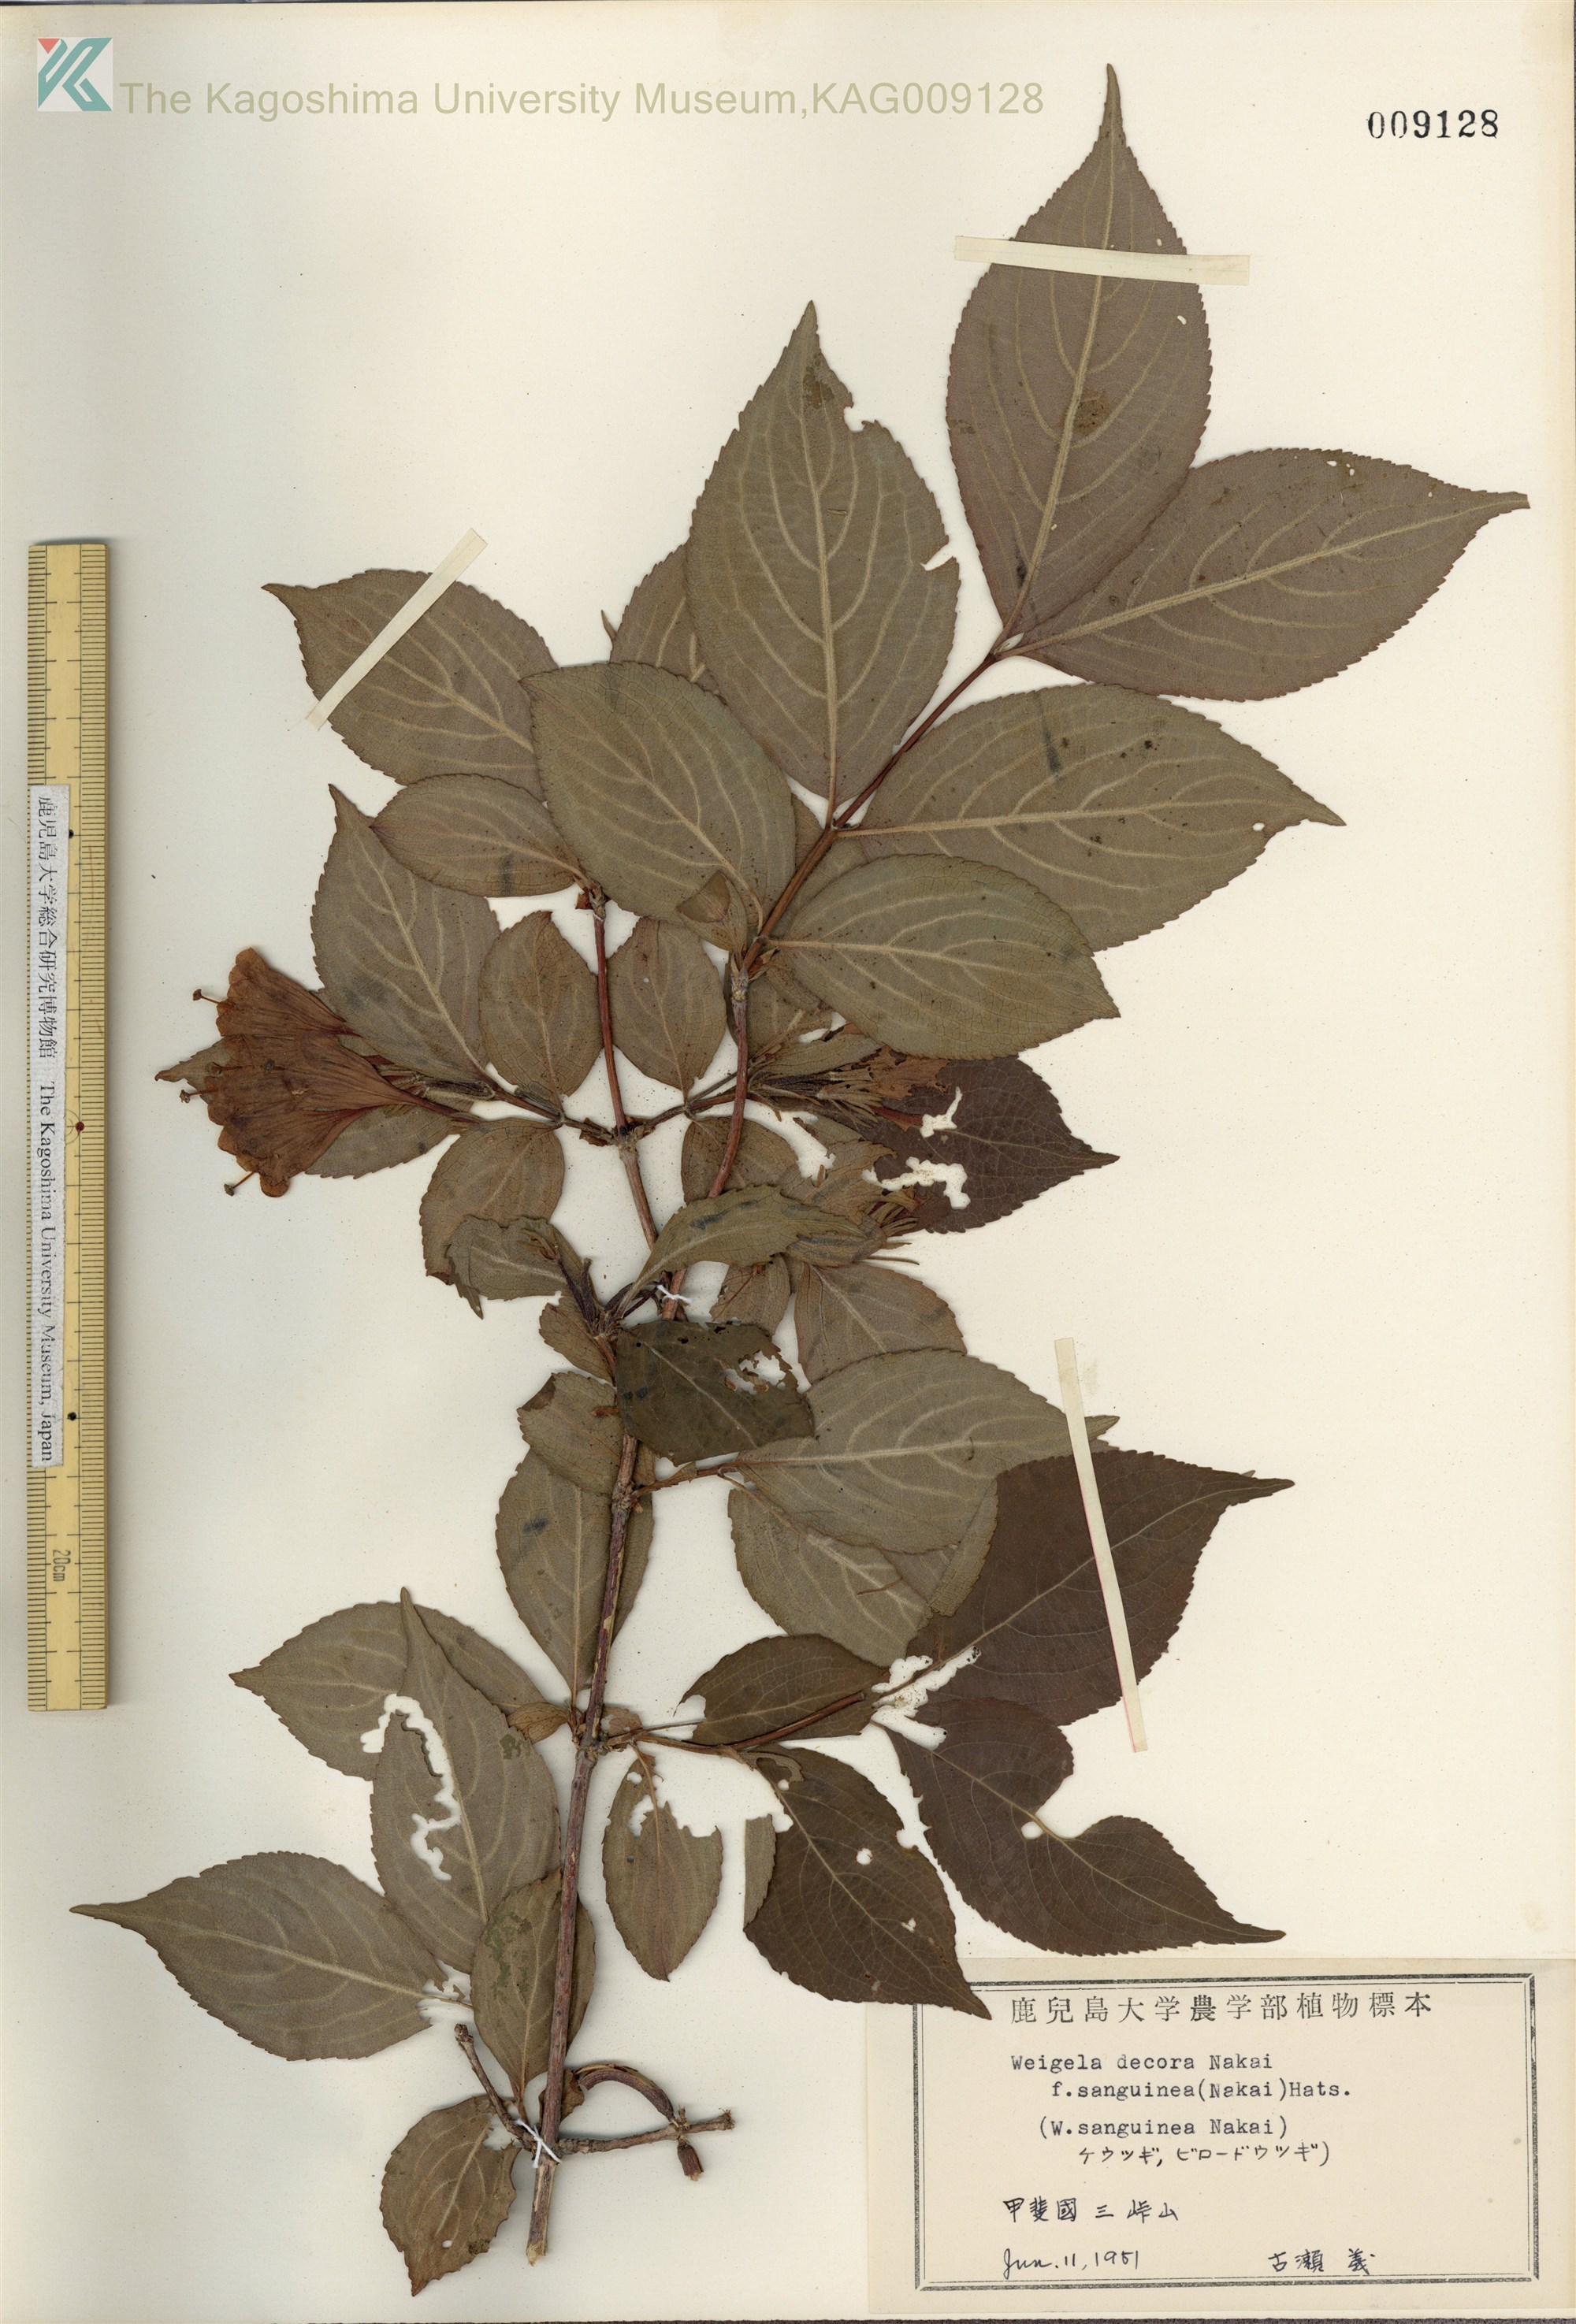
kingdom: Plantae
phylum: Tracheophyta
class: Magnoliopsida
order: Dipsacales
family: Caprifoliaceae
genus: Weigela
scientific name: Weigela decora
